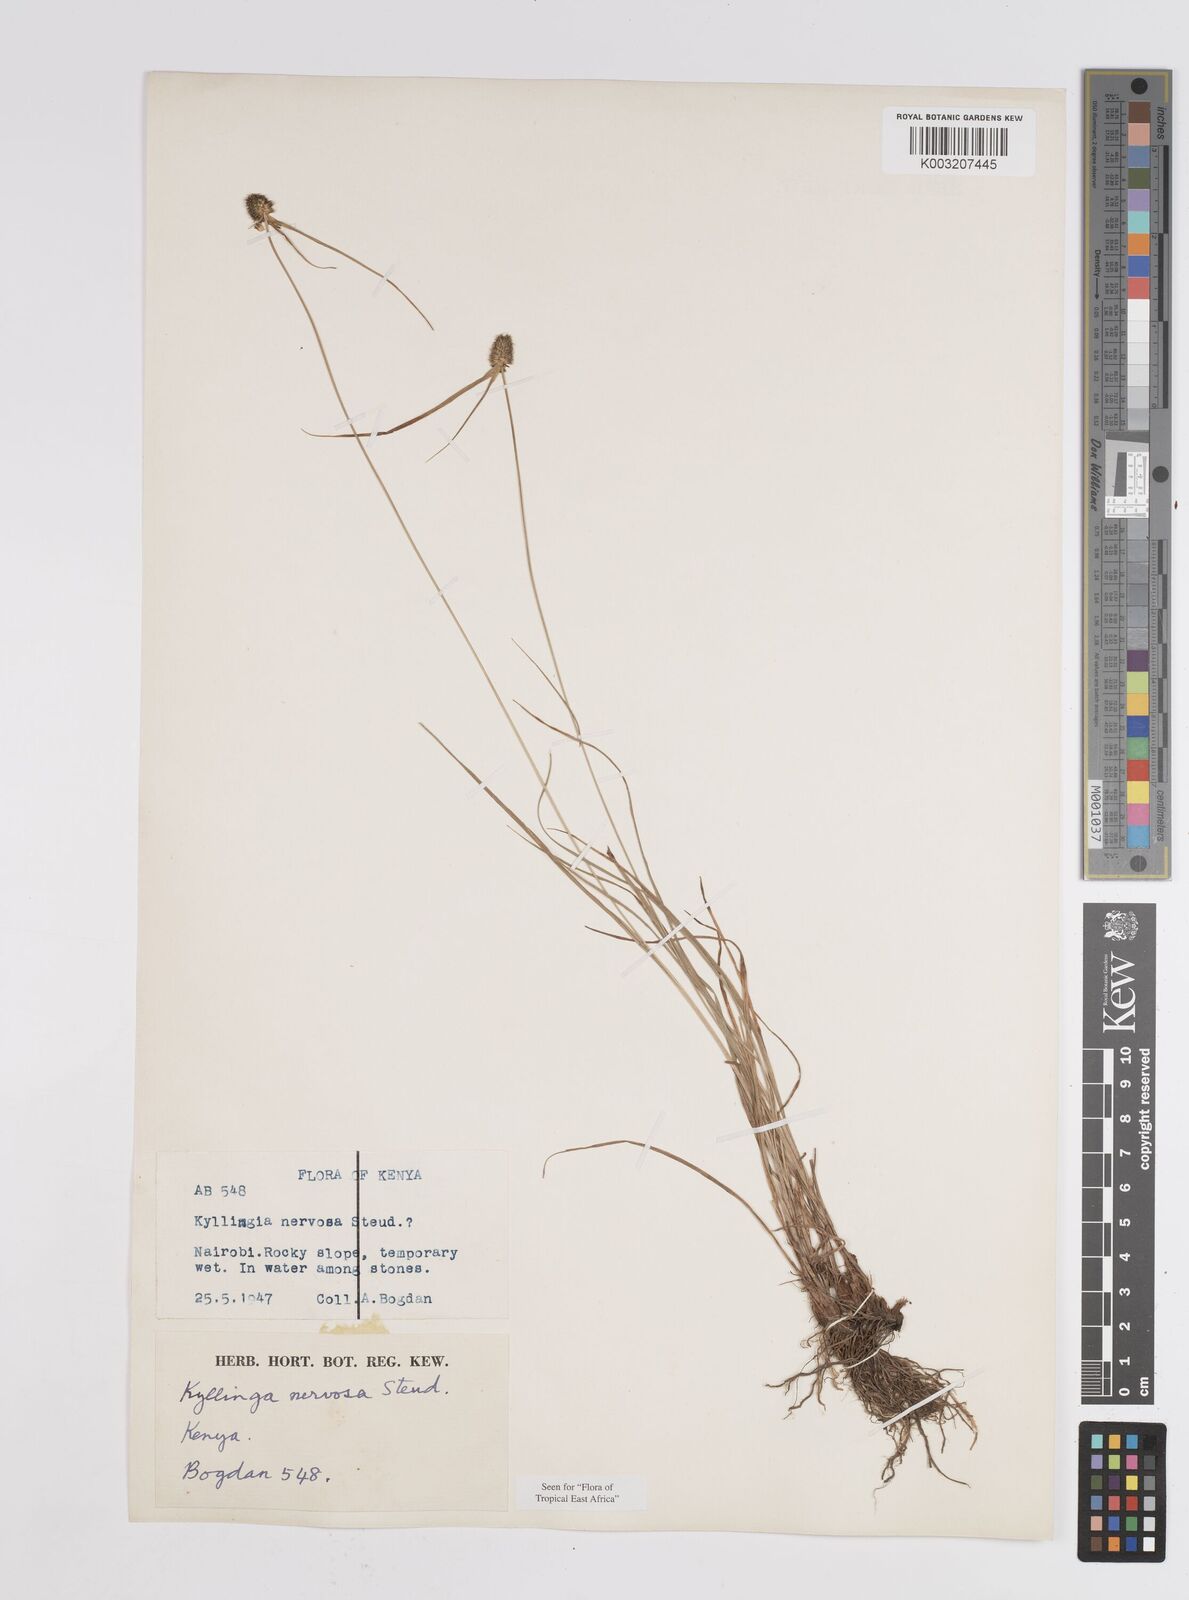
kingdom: Plantae
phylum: Tracheophyta
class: Liliopsida
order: Poales
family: Cyperaceae
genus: Cyperus
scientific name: Cyperus
